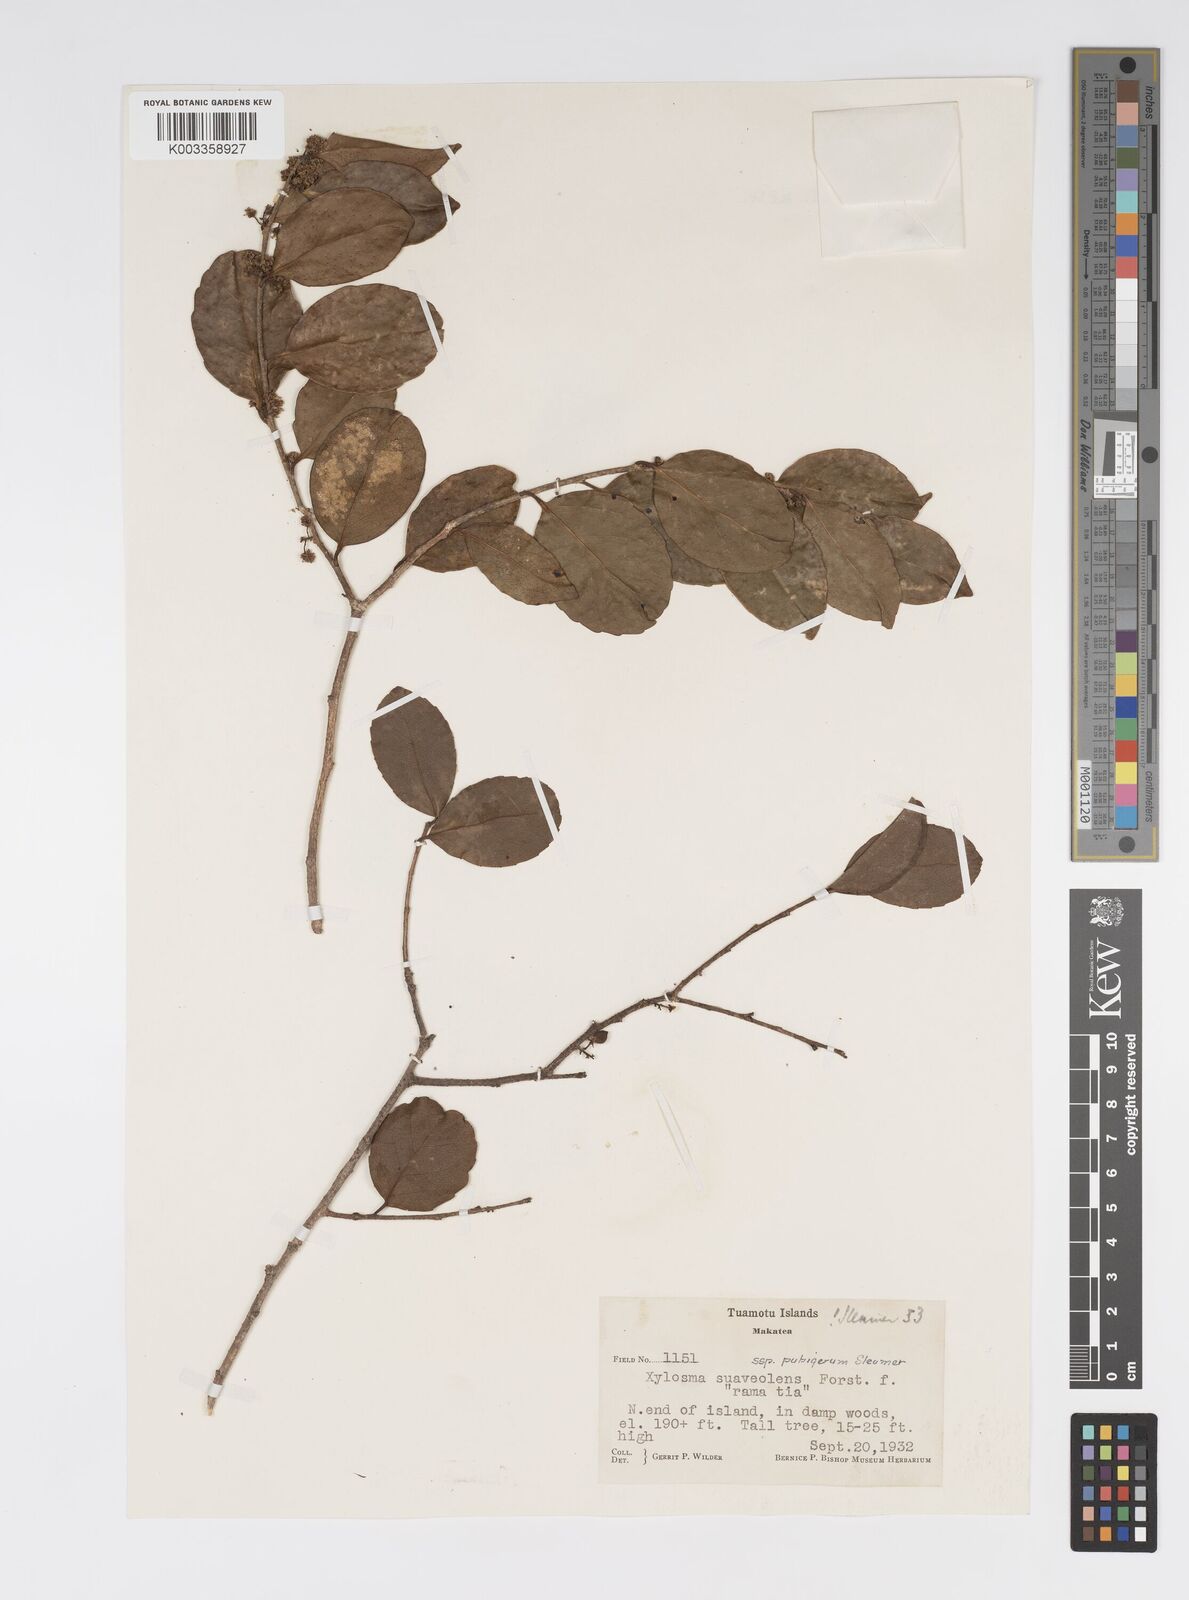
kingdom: Plantae
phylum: Tracheophyta
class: Magnoliopsida
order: Malpighiales
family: Salicaceae
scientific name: Salicaceae
